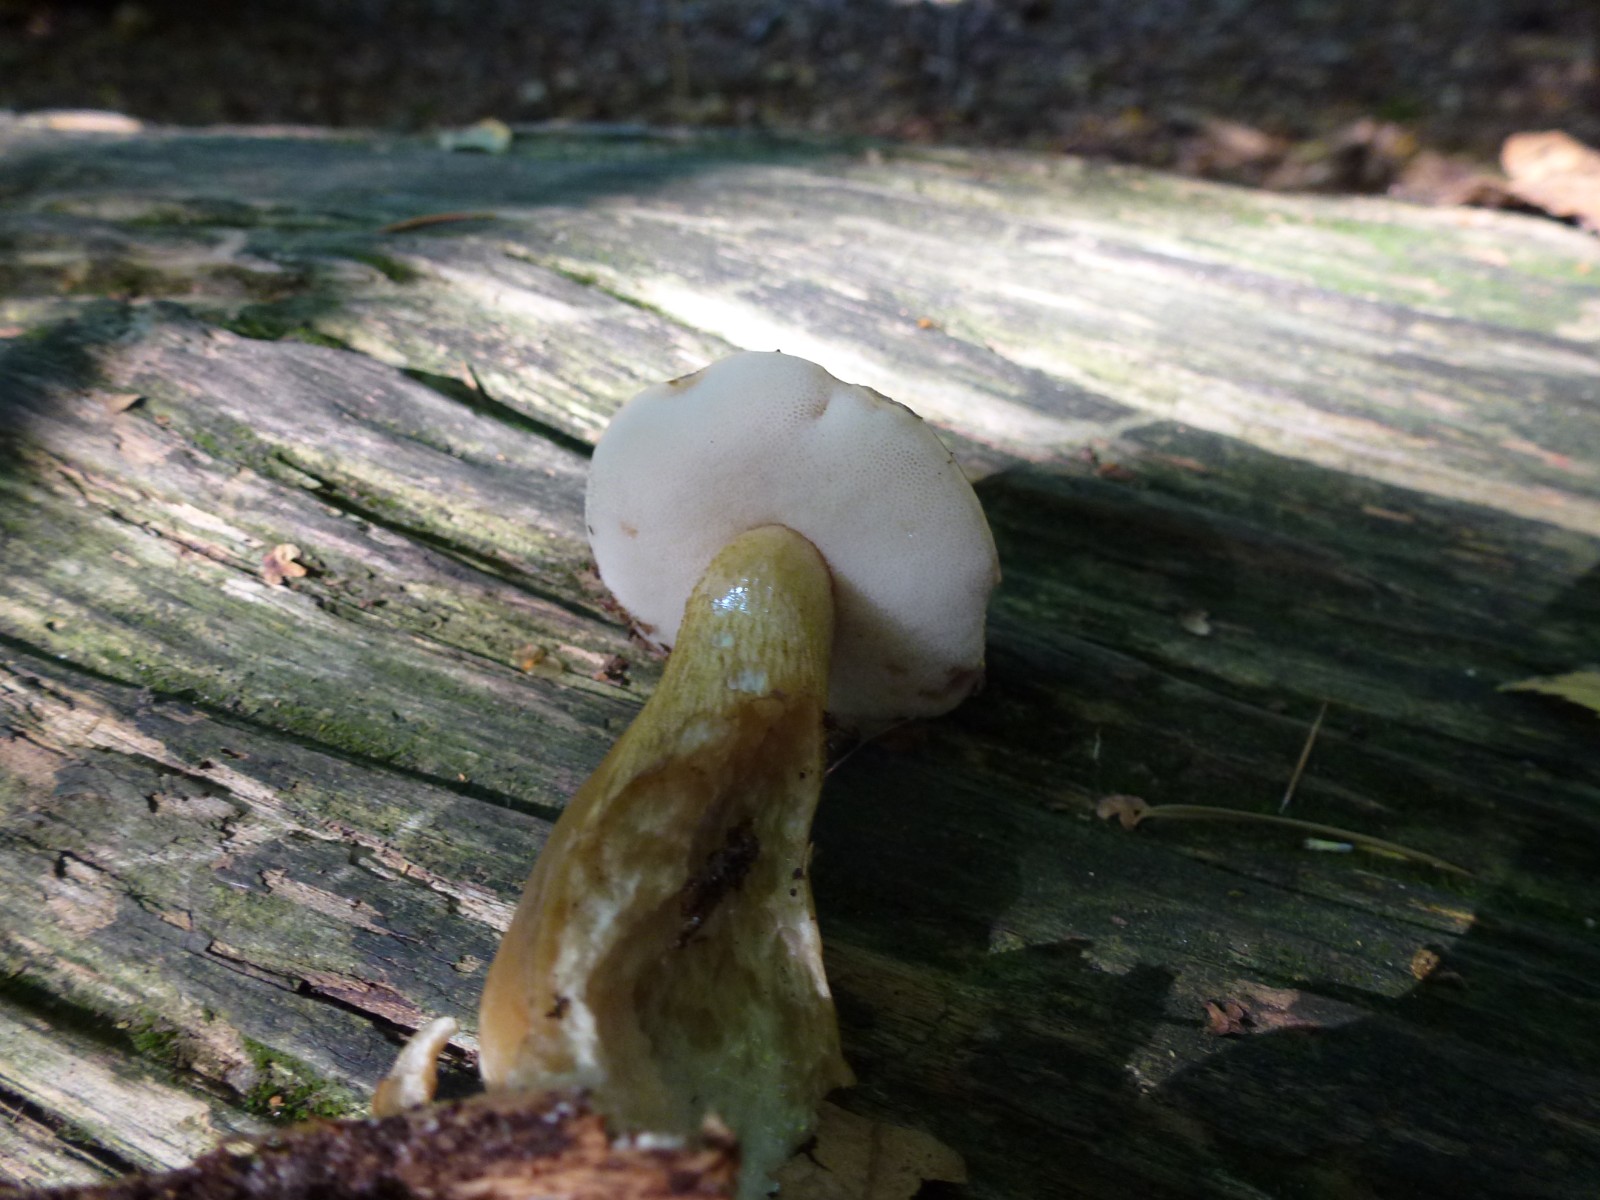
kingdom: Fungi
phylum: Basidiomycota
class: Agaricomycetes
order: Boletales
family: Boletaceae
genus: Tylopilus
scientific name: Tylopilus felleus
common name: galderørhat
